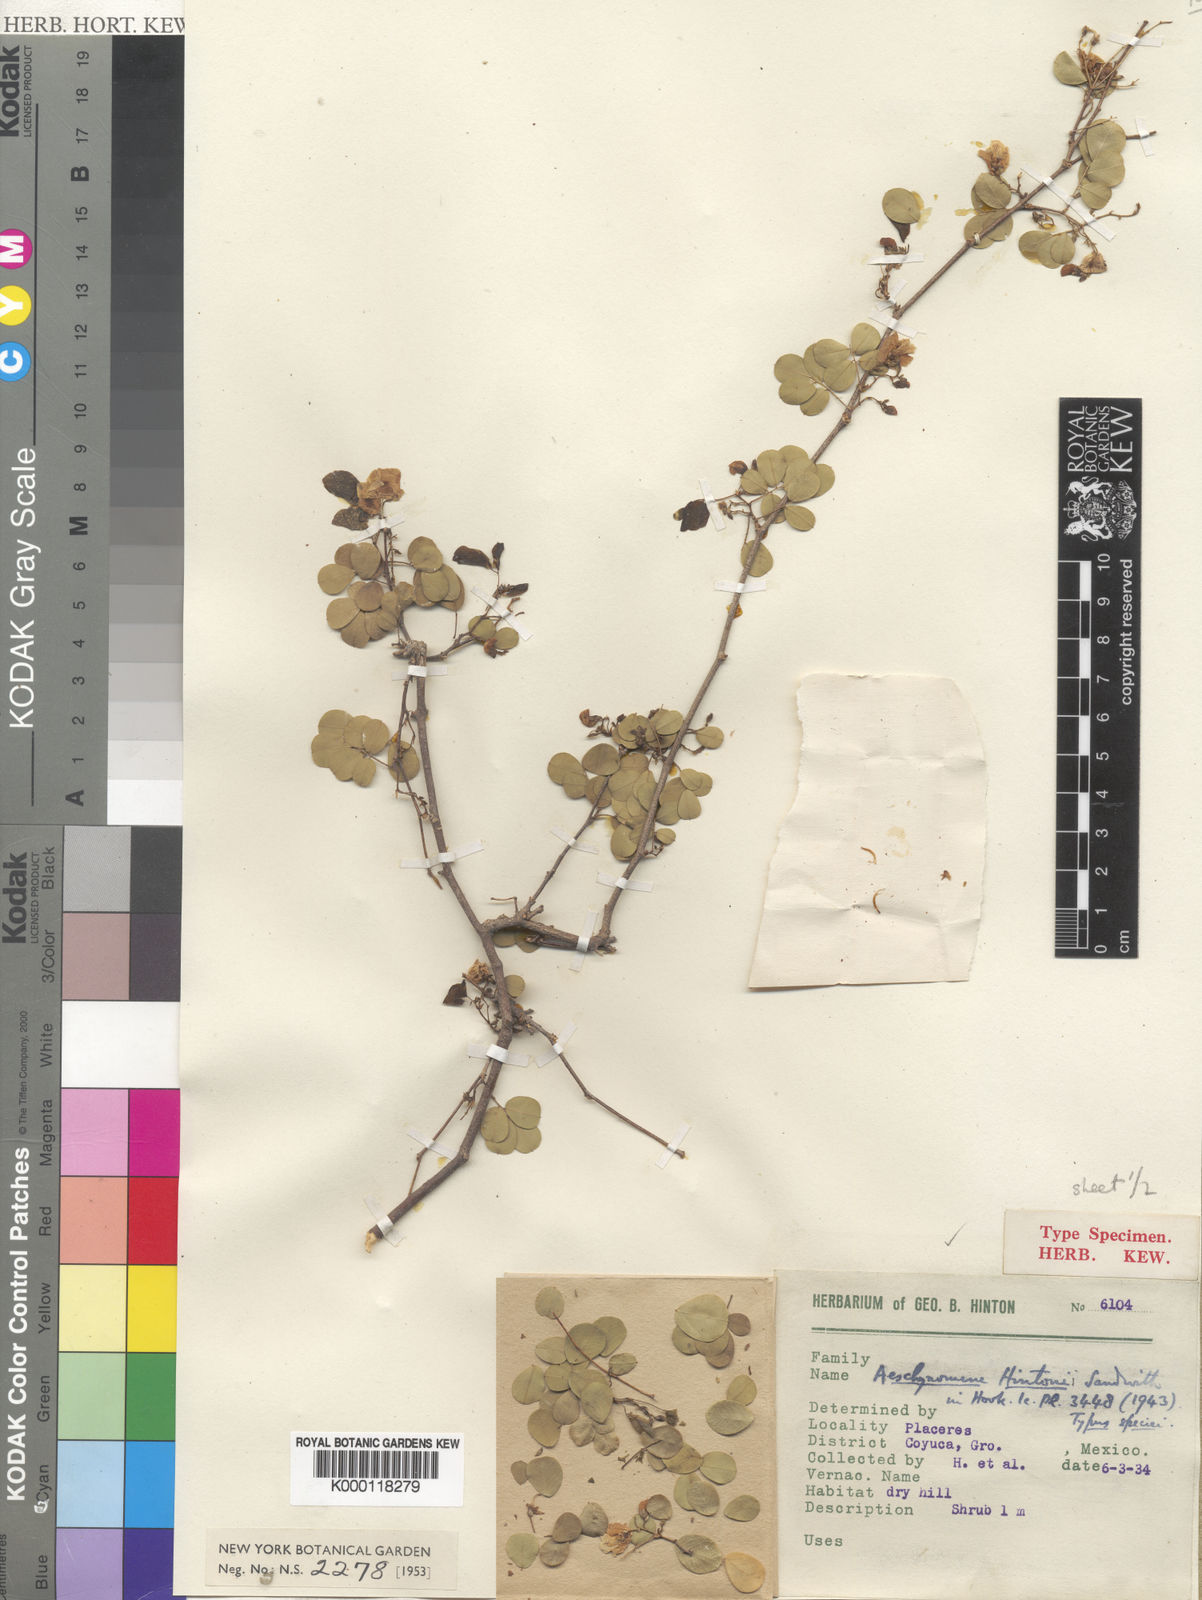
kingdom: Plantae
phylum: Tracheophyta
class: Magnoliopsida
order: Fabales
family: Fabaceae
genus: Ctenodon
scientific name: Ctenodon hintonii
